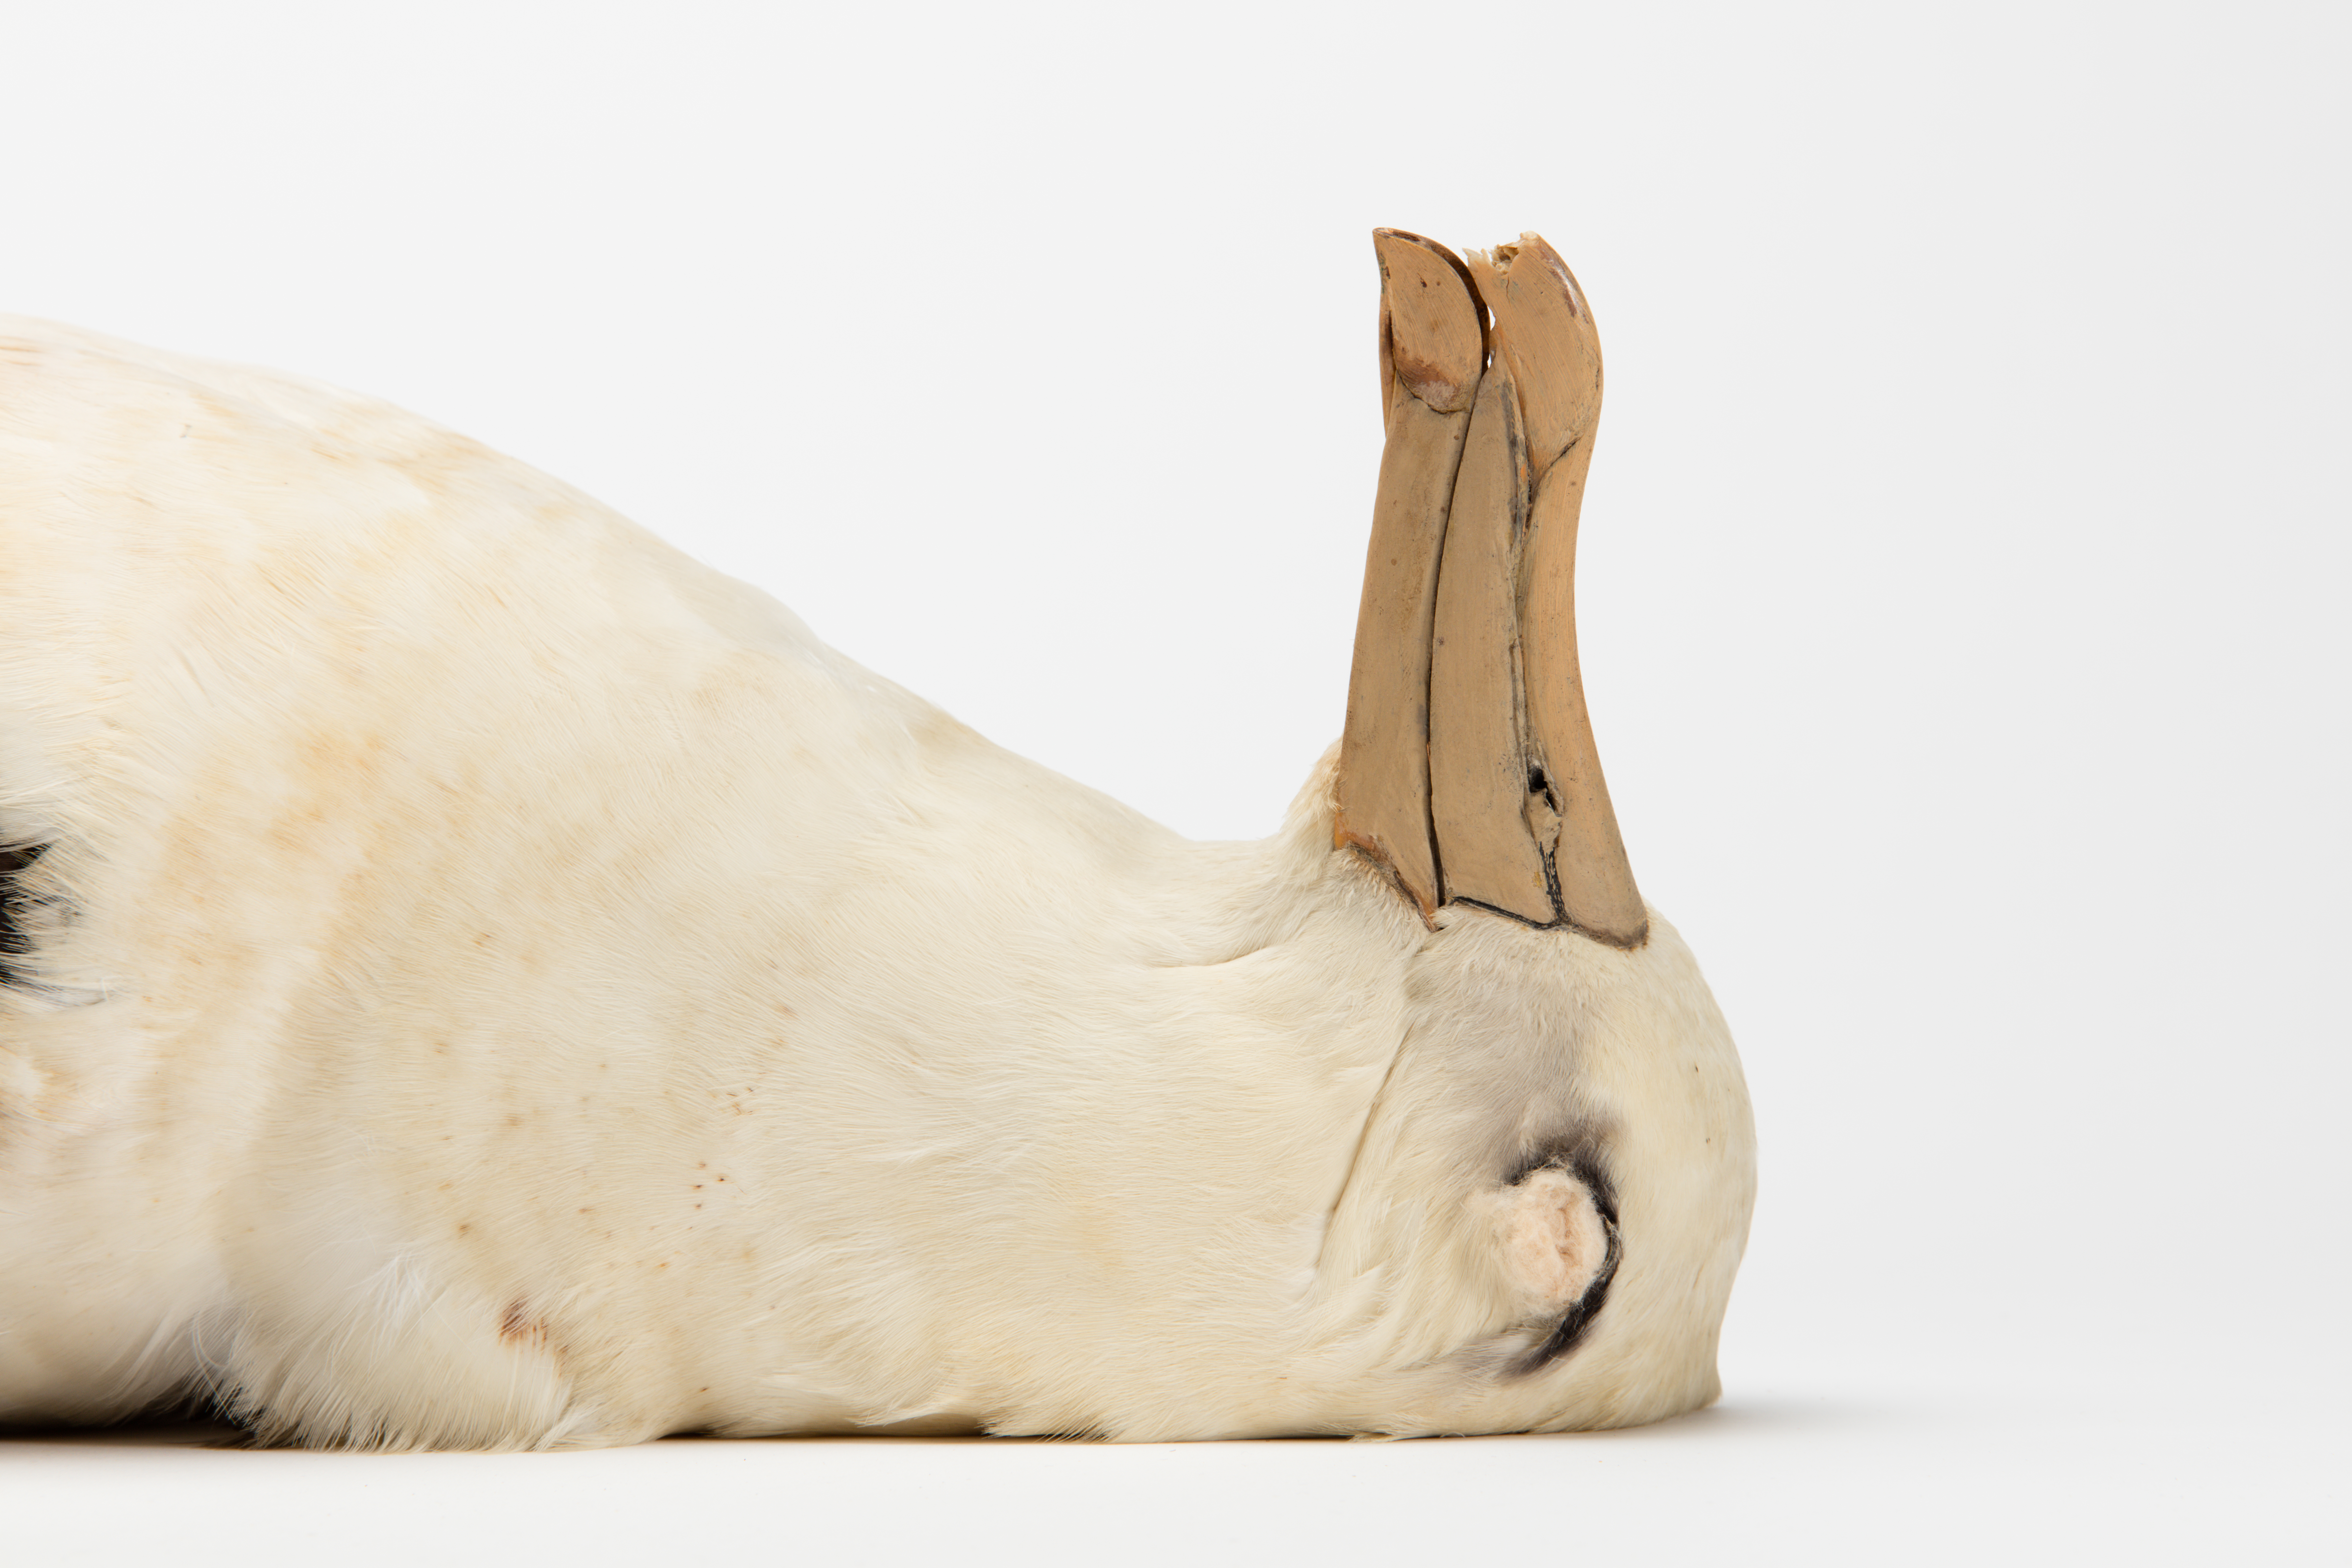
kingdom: Animalia
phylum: Chordata
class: Aves
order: Procellariiformes
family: Diomedeidae
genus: Thalassarche
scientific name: Thalassarche melanophris
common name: Black-browed albatross
